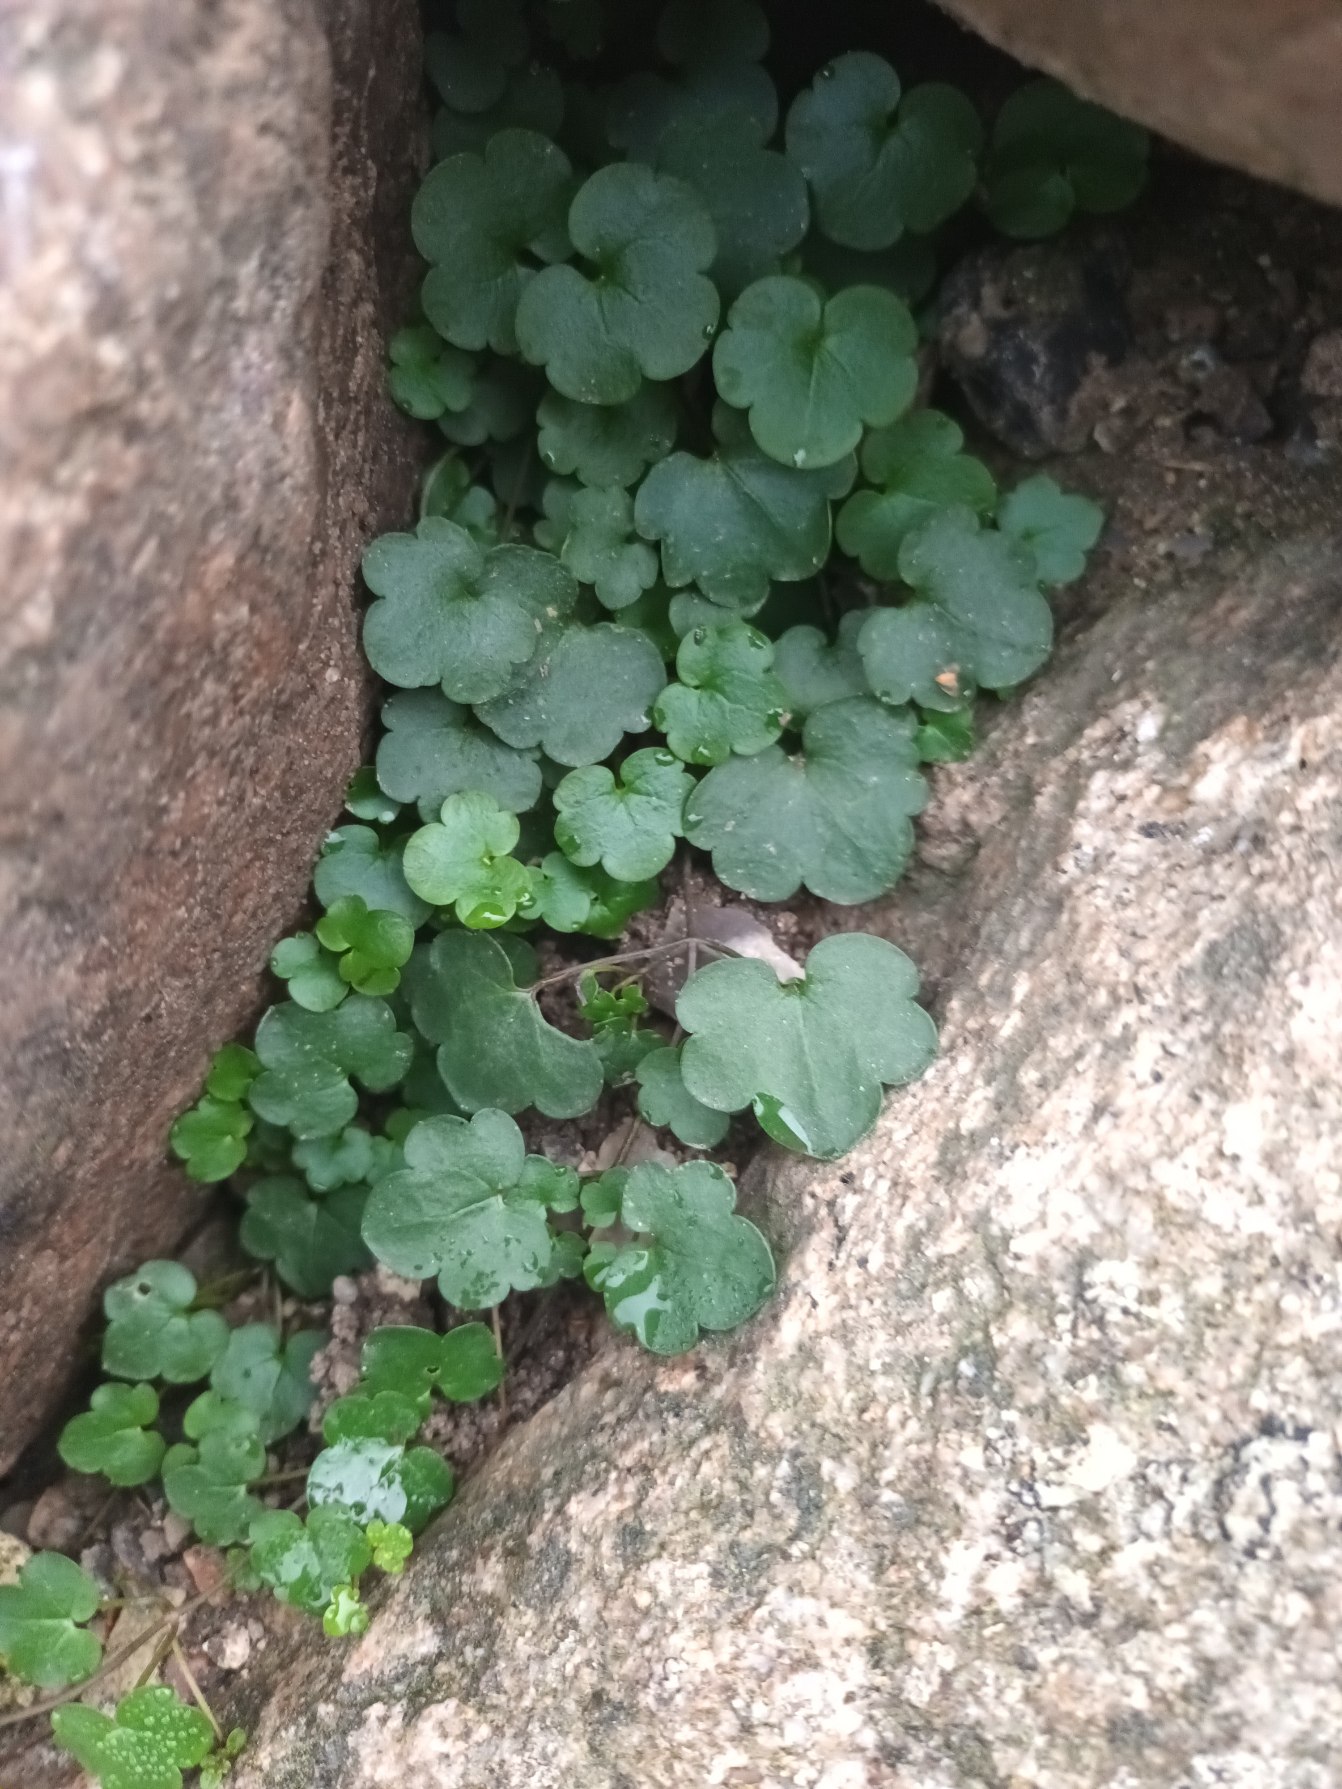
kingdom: Plantae
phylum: Tracheophyta
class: Magnoliopsida
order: Lamiales
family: Plantaginaceae
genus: Cymbalaria
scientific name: Cymbalaria muralis
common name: Vedbend-torskemund
